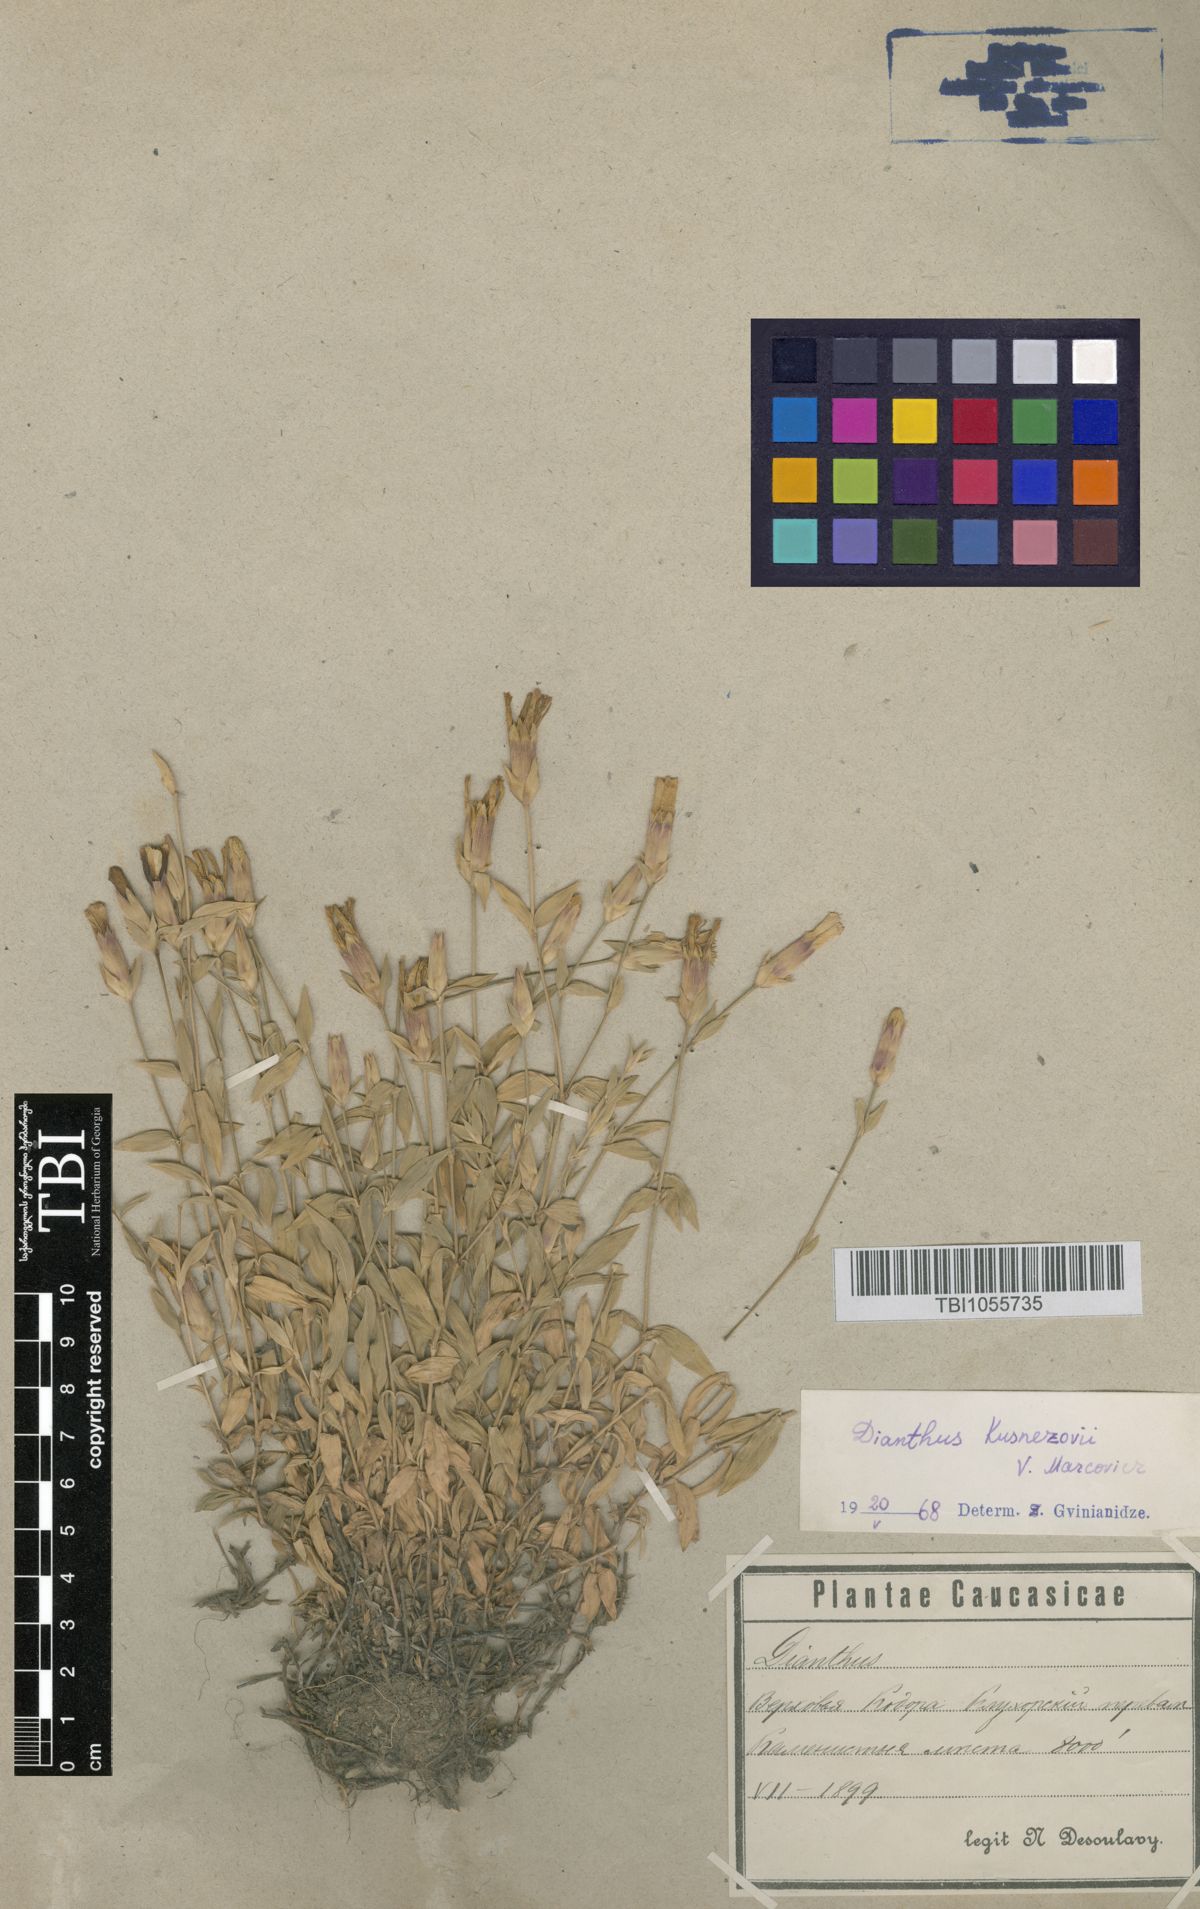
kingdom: Plantae
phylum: Tracheophyta
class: Magnoliopsida
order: Caryophyllales
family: Caryophyllaceae
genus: Dianthus
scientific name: Dianthus kusnezovii
